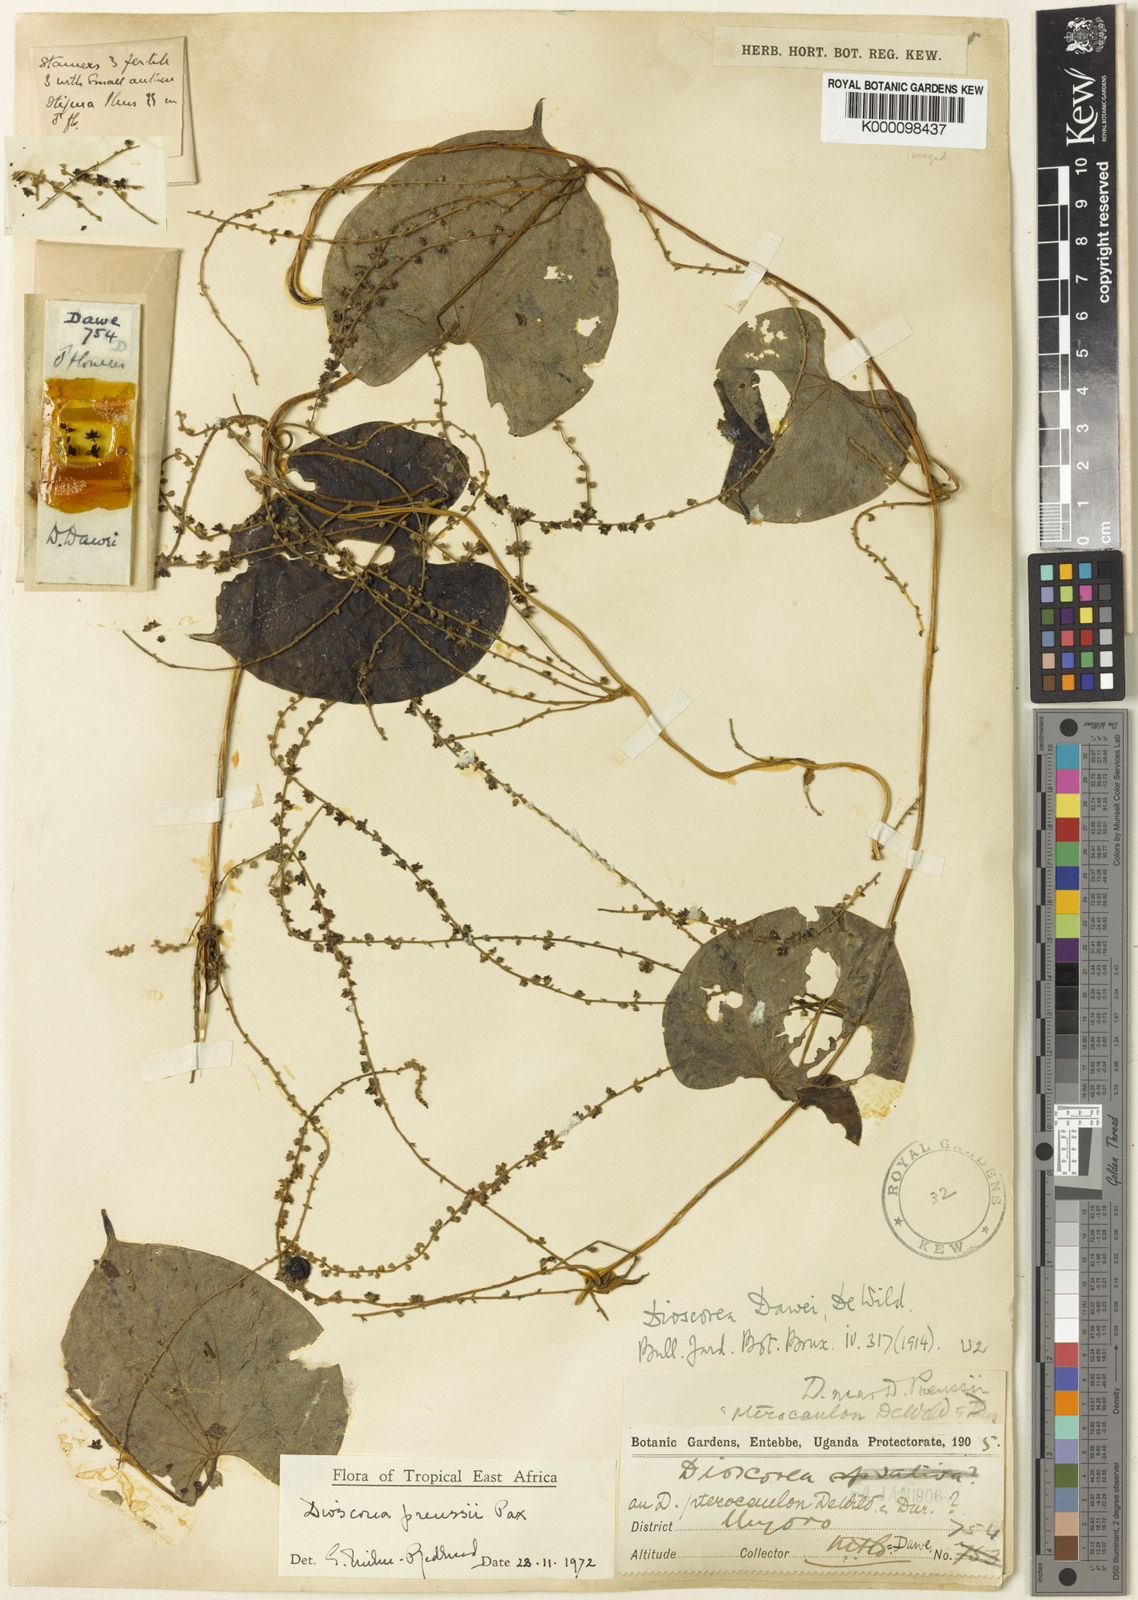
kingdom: Plantae
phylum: Tracheophyta
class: Liliopsida
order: Dioscoreales
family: Dioscoreaceae
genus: Dioscorea
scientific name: Dioscorea preussii
